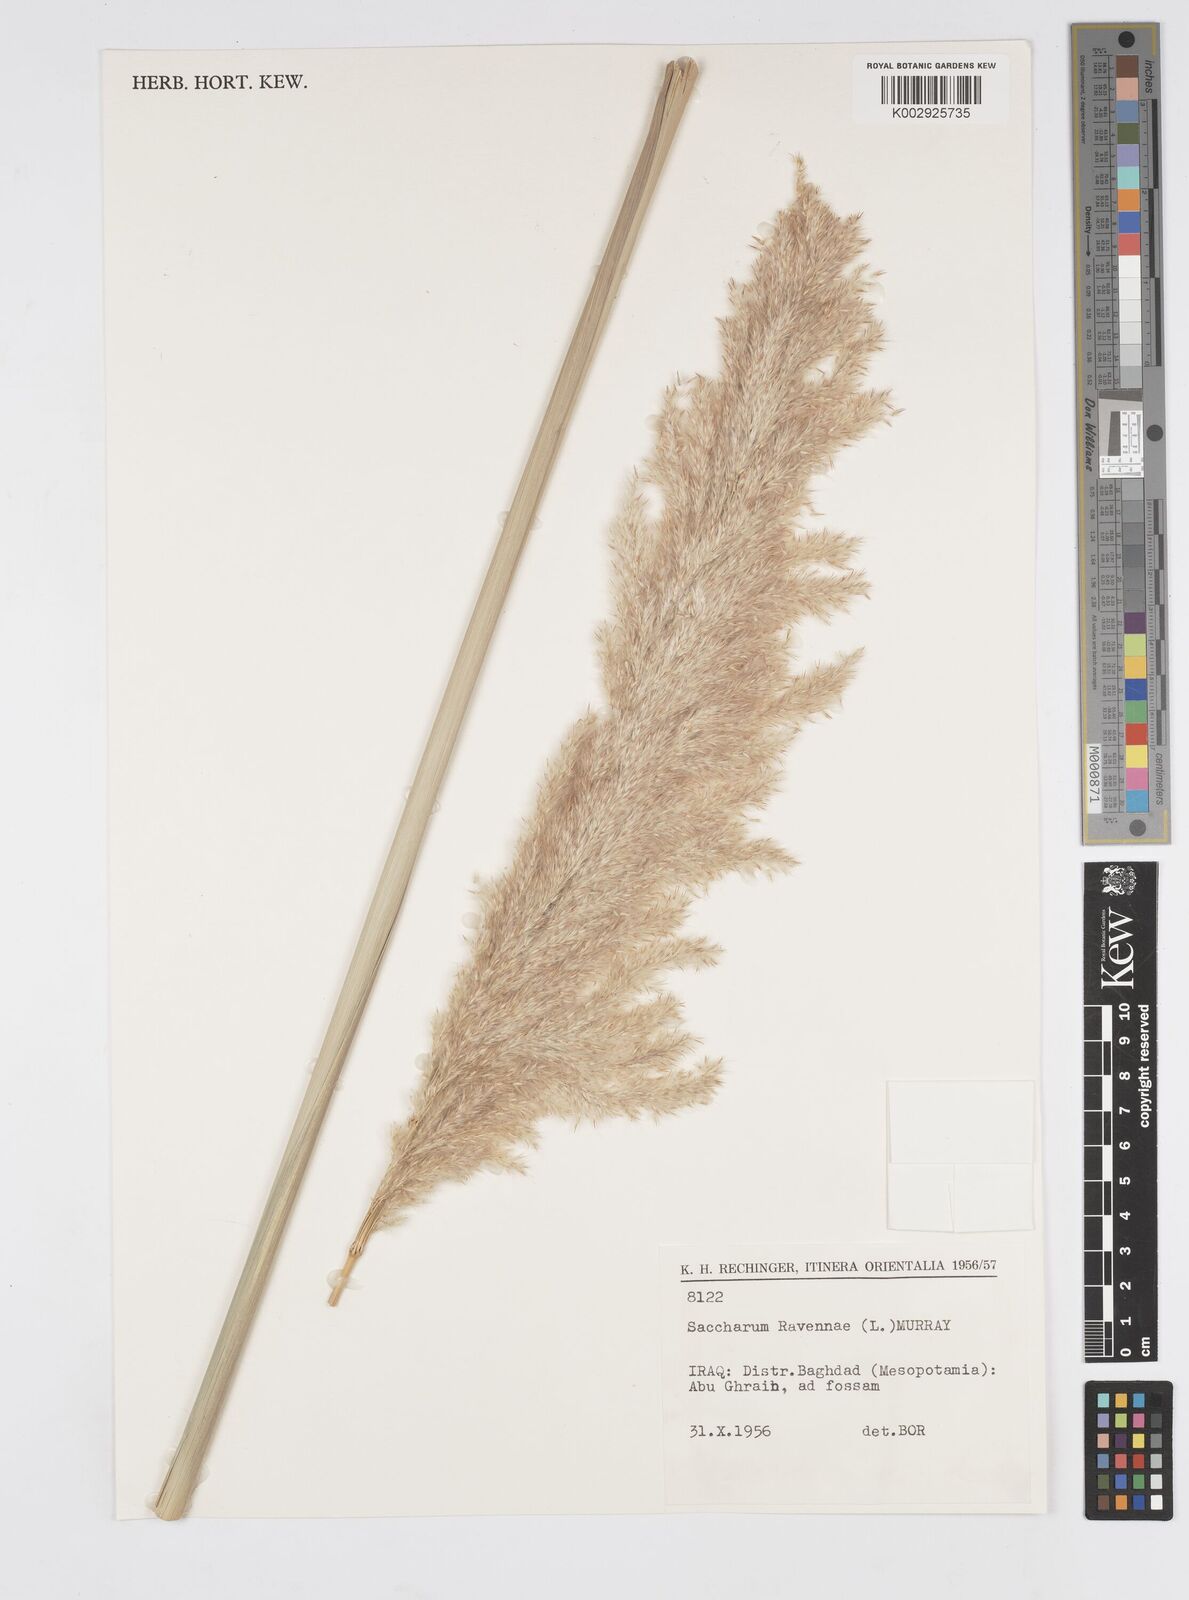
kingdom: Plantae
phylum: Tracheophyta
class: Liliopsida
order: Poales
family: Poaceae
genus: Tripidium
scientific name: Tripidium ravennae
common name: Ravenna grass
